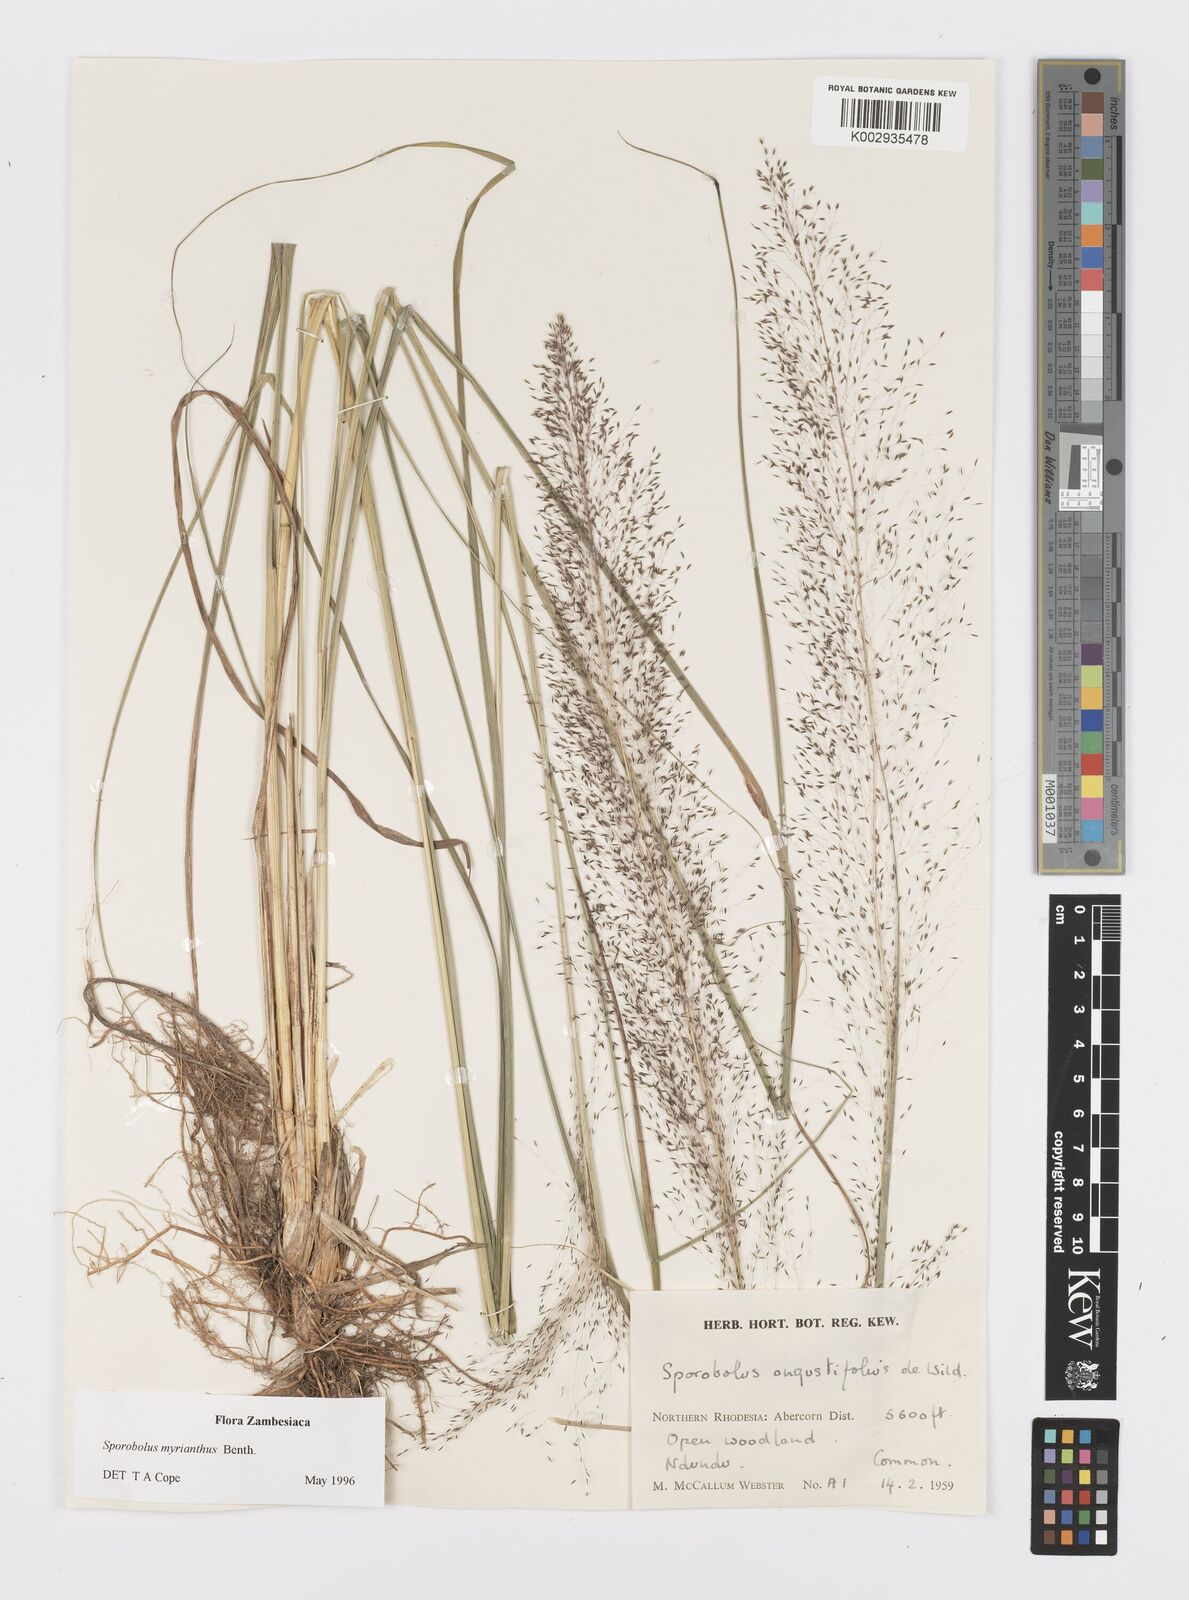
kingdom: Plantae
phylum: Tracheophyta
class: Liliopsida
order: Poales
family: Poaceae
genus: Sporobolus
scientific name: Sporobolus myrianthus
